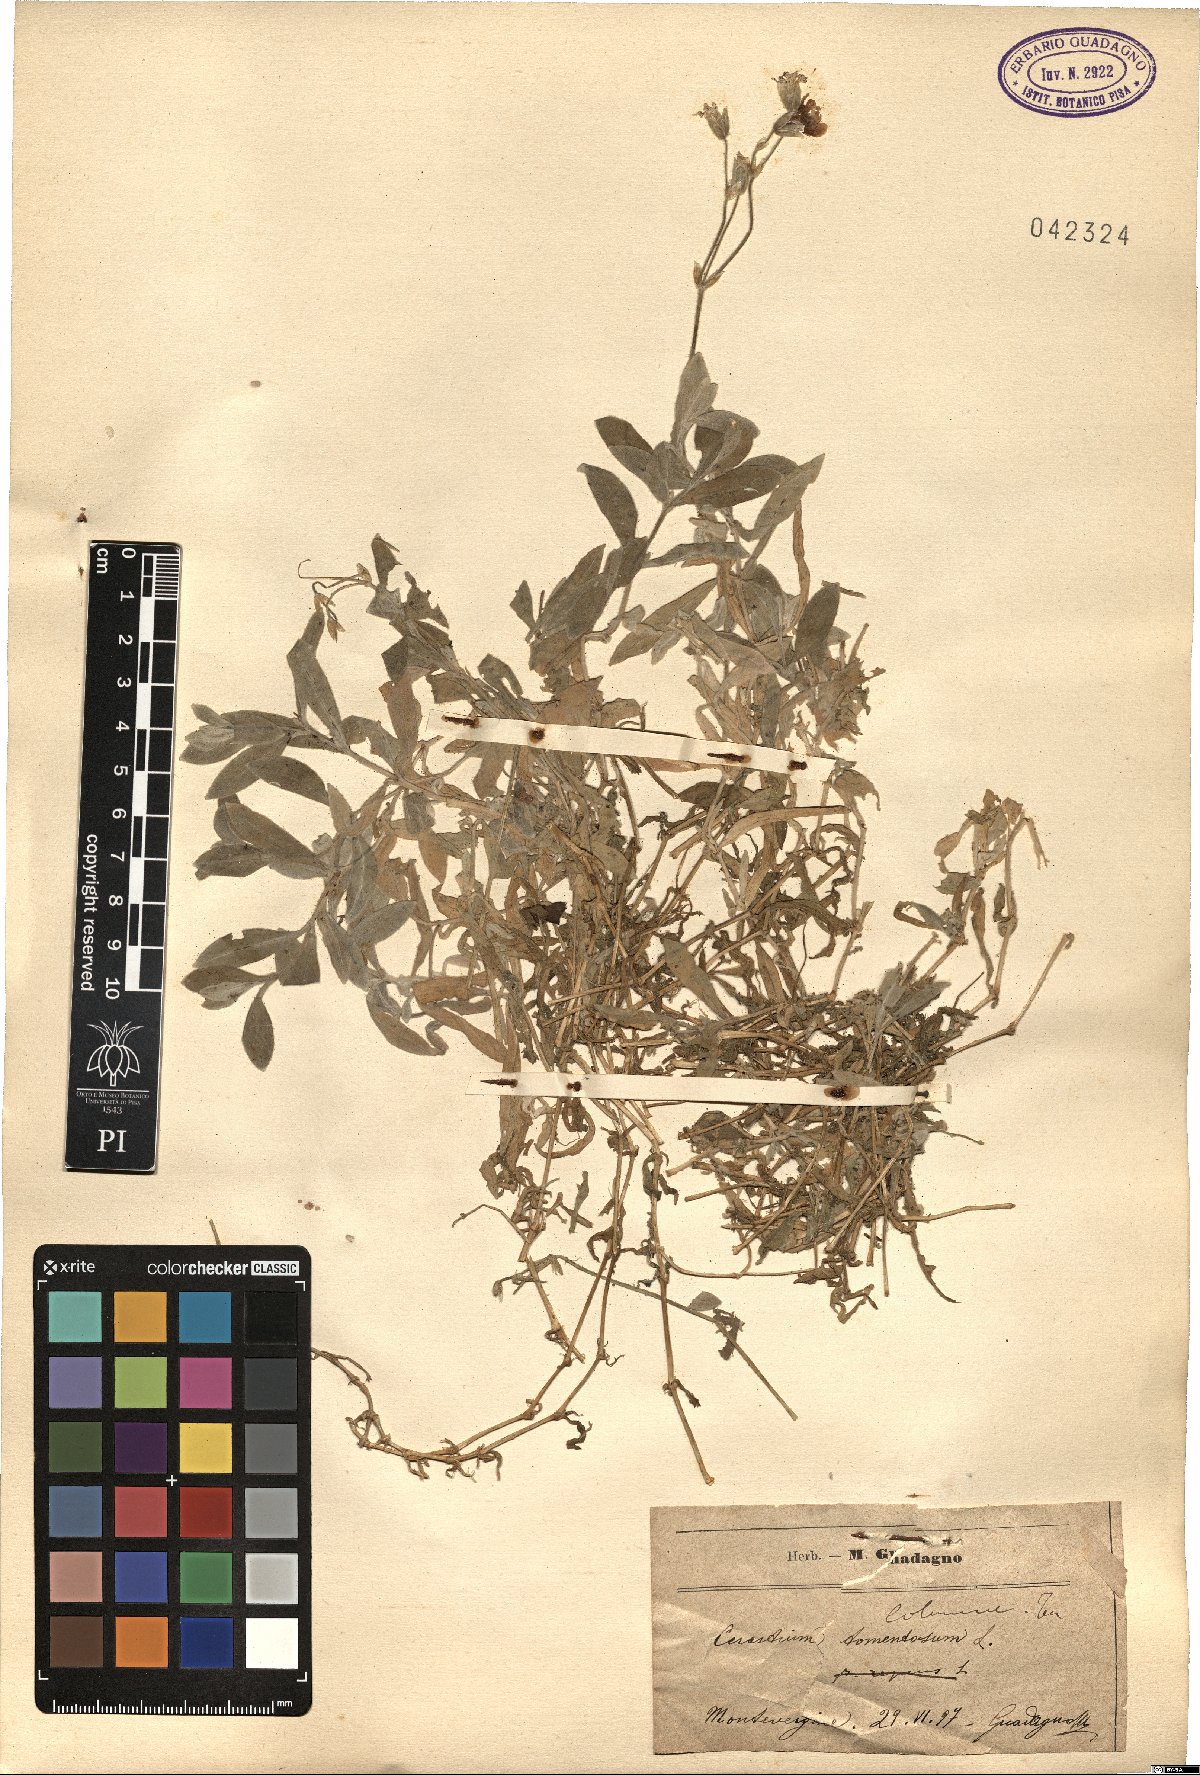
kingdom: Plantae
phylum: Tracheophyta
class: Magnoliopsida
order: Caryophyllales
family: Caryophyllaceae
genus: Cerastium
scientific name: Cerastium tomentosum
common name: Snow-in-summer
